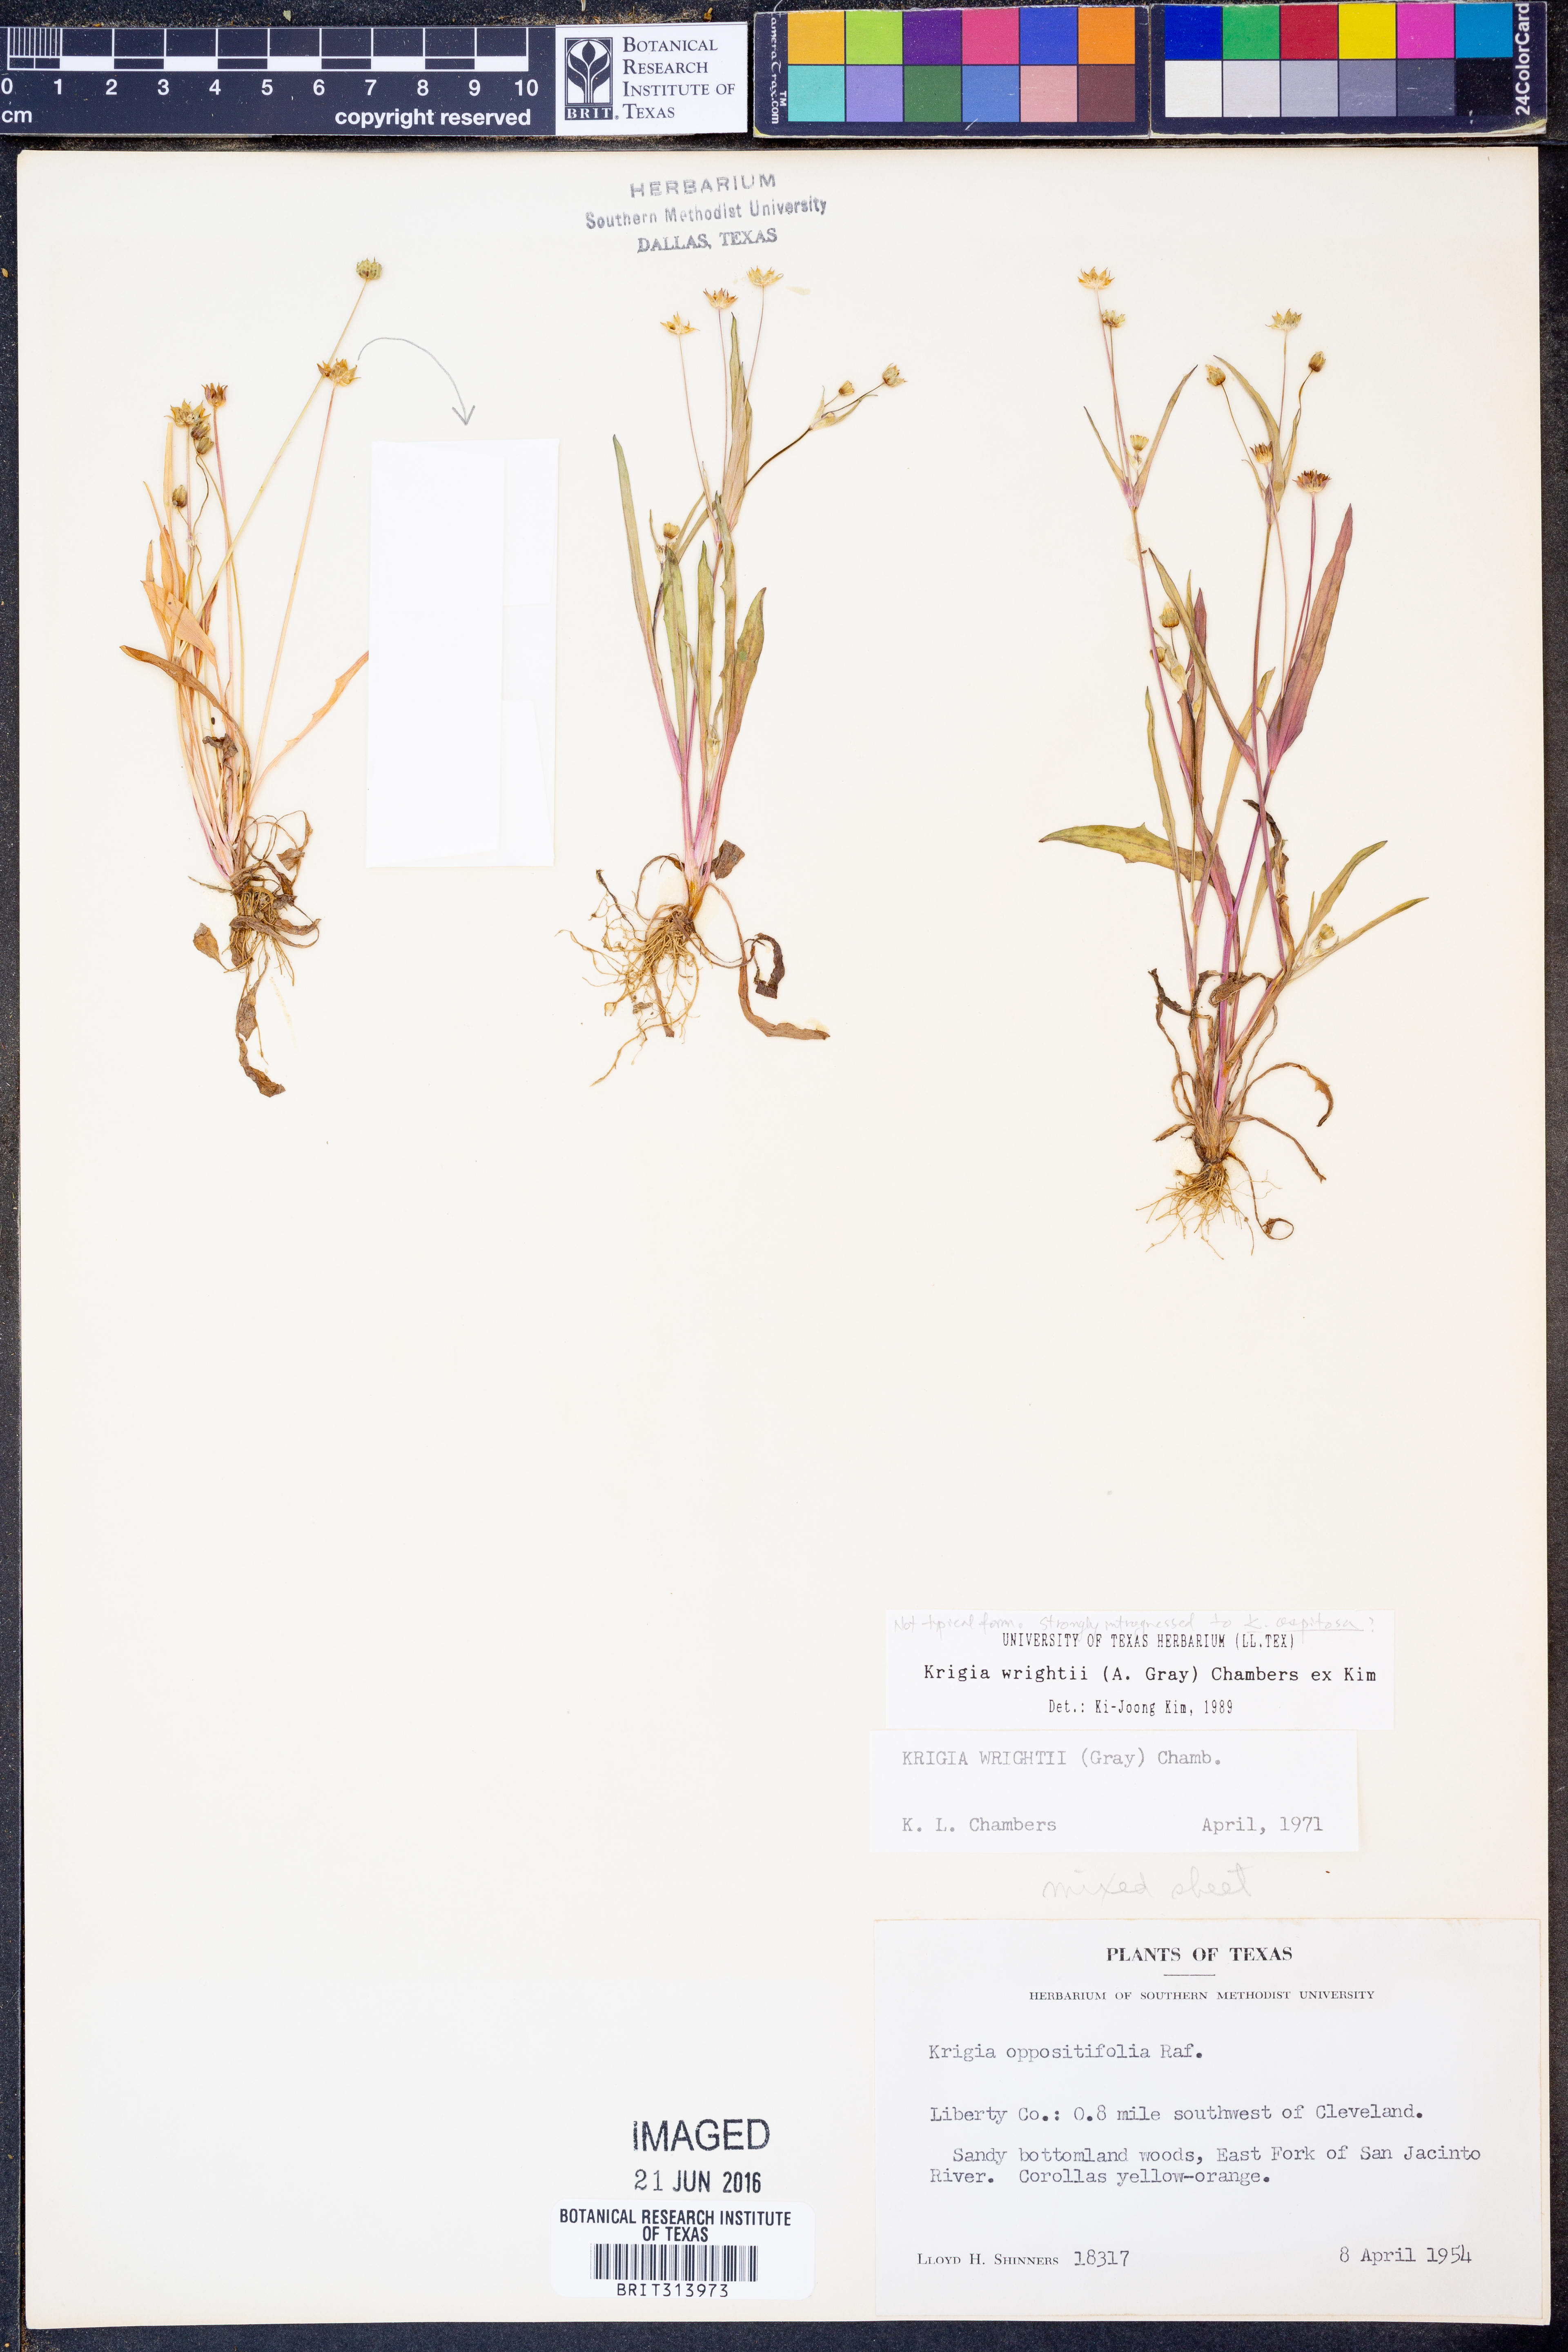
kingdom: Plantae
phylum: Tracheophyta
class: Magnoliopsida
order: Asterales
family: Asteraceae
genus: Krigia
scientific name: Krigia wrightii
